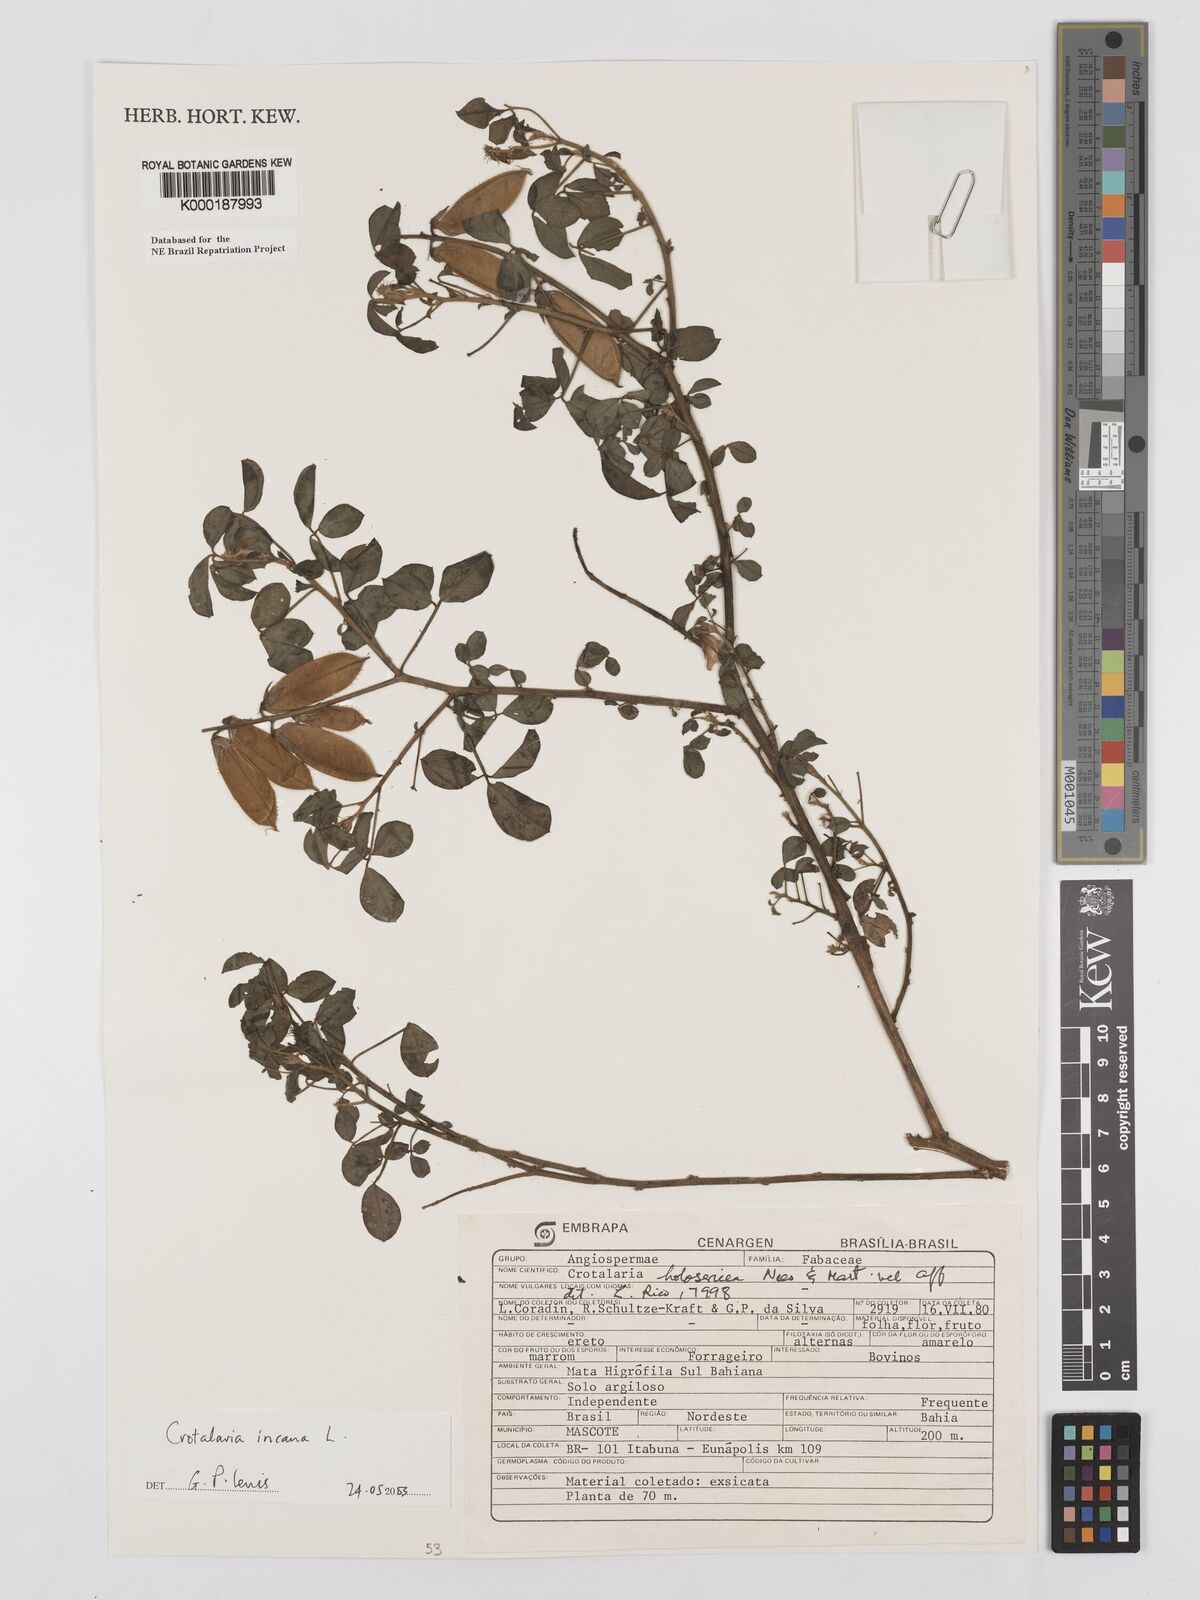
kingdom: Plantae
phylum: Tracheophyta
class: Magnoliopsida
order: Fabales
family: Fabaceae
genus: Crotalaria
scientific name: Crotalaria incana
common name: Shakeshake
